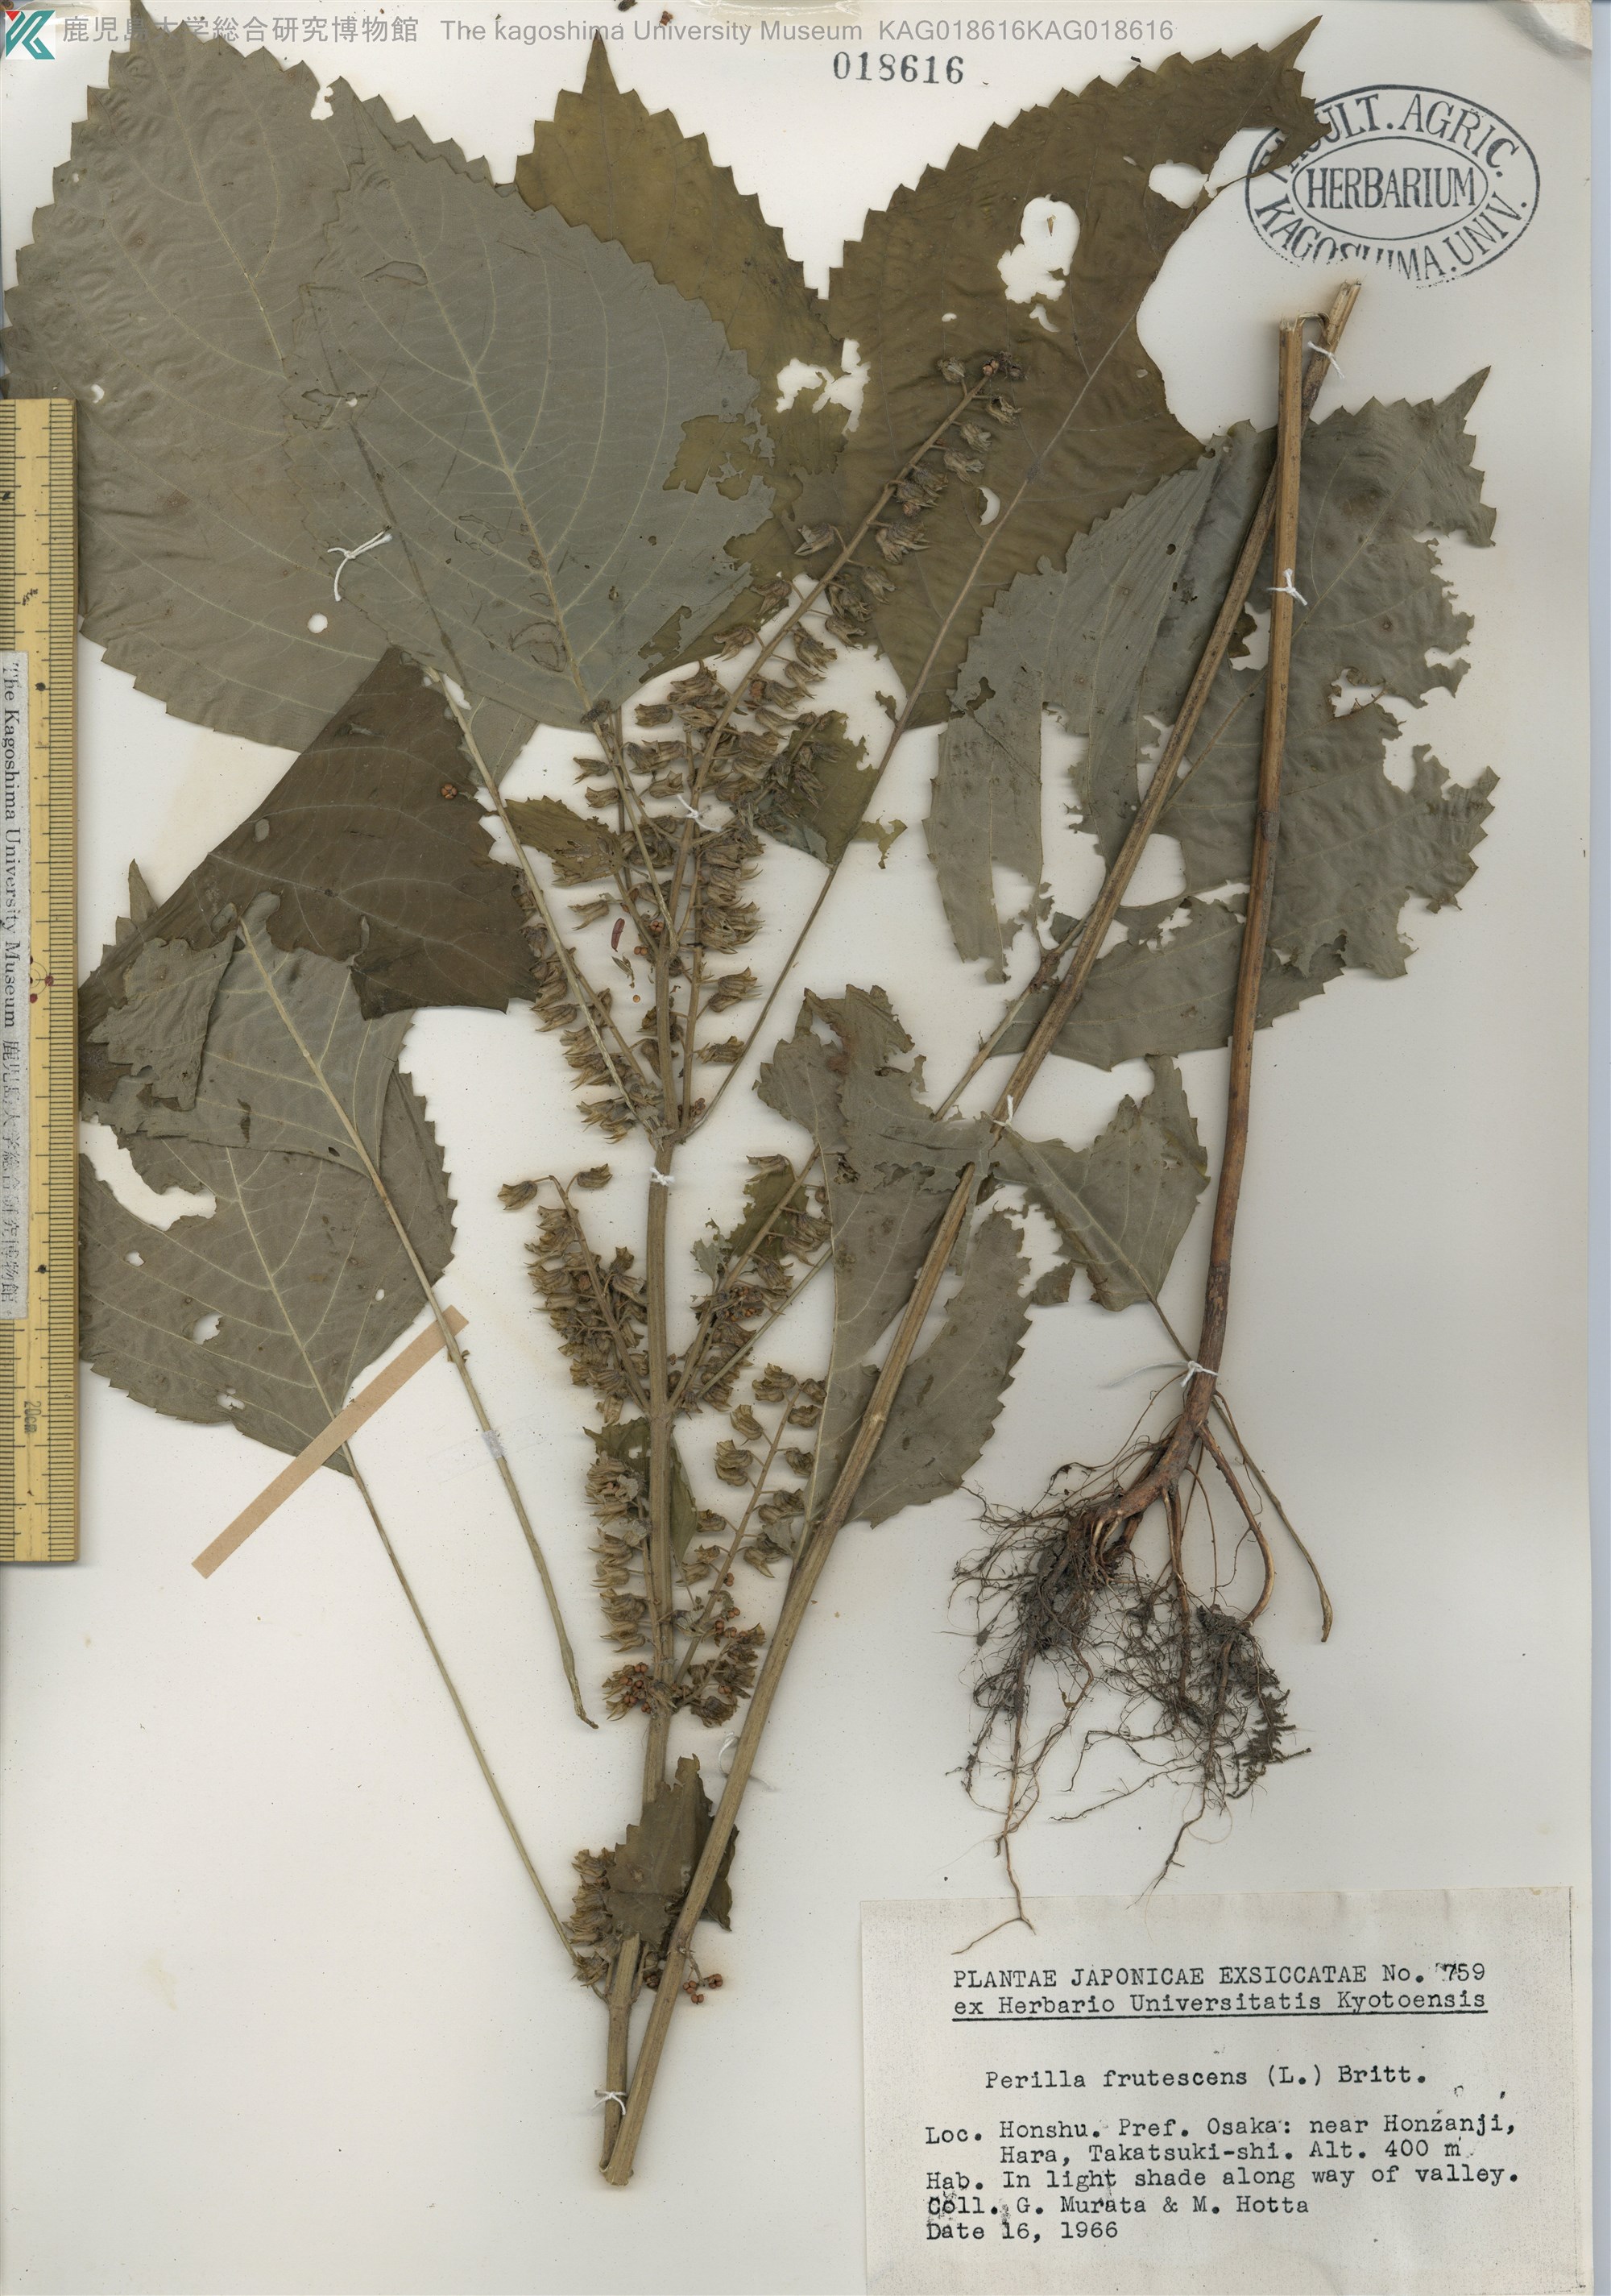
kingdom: Plantae
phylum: Tracheophyta
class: Magnoliopsida
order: Lamiales
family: Lamiaceae
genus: Perilla
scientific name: Perilla frutescens
